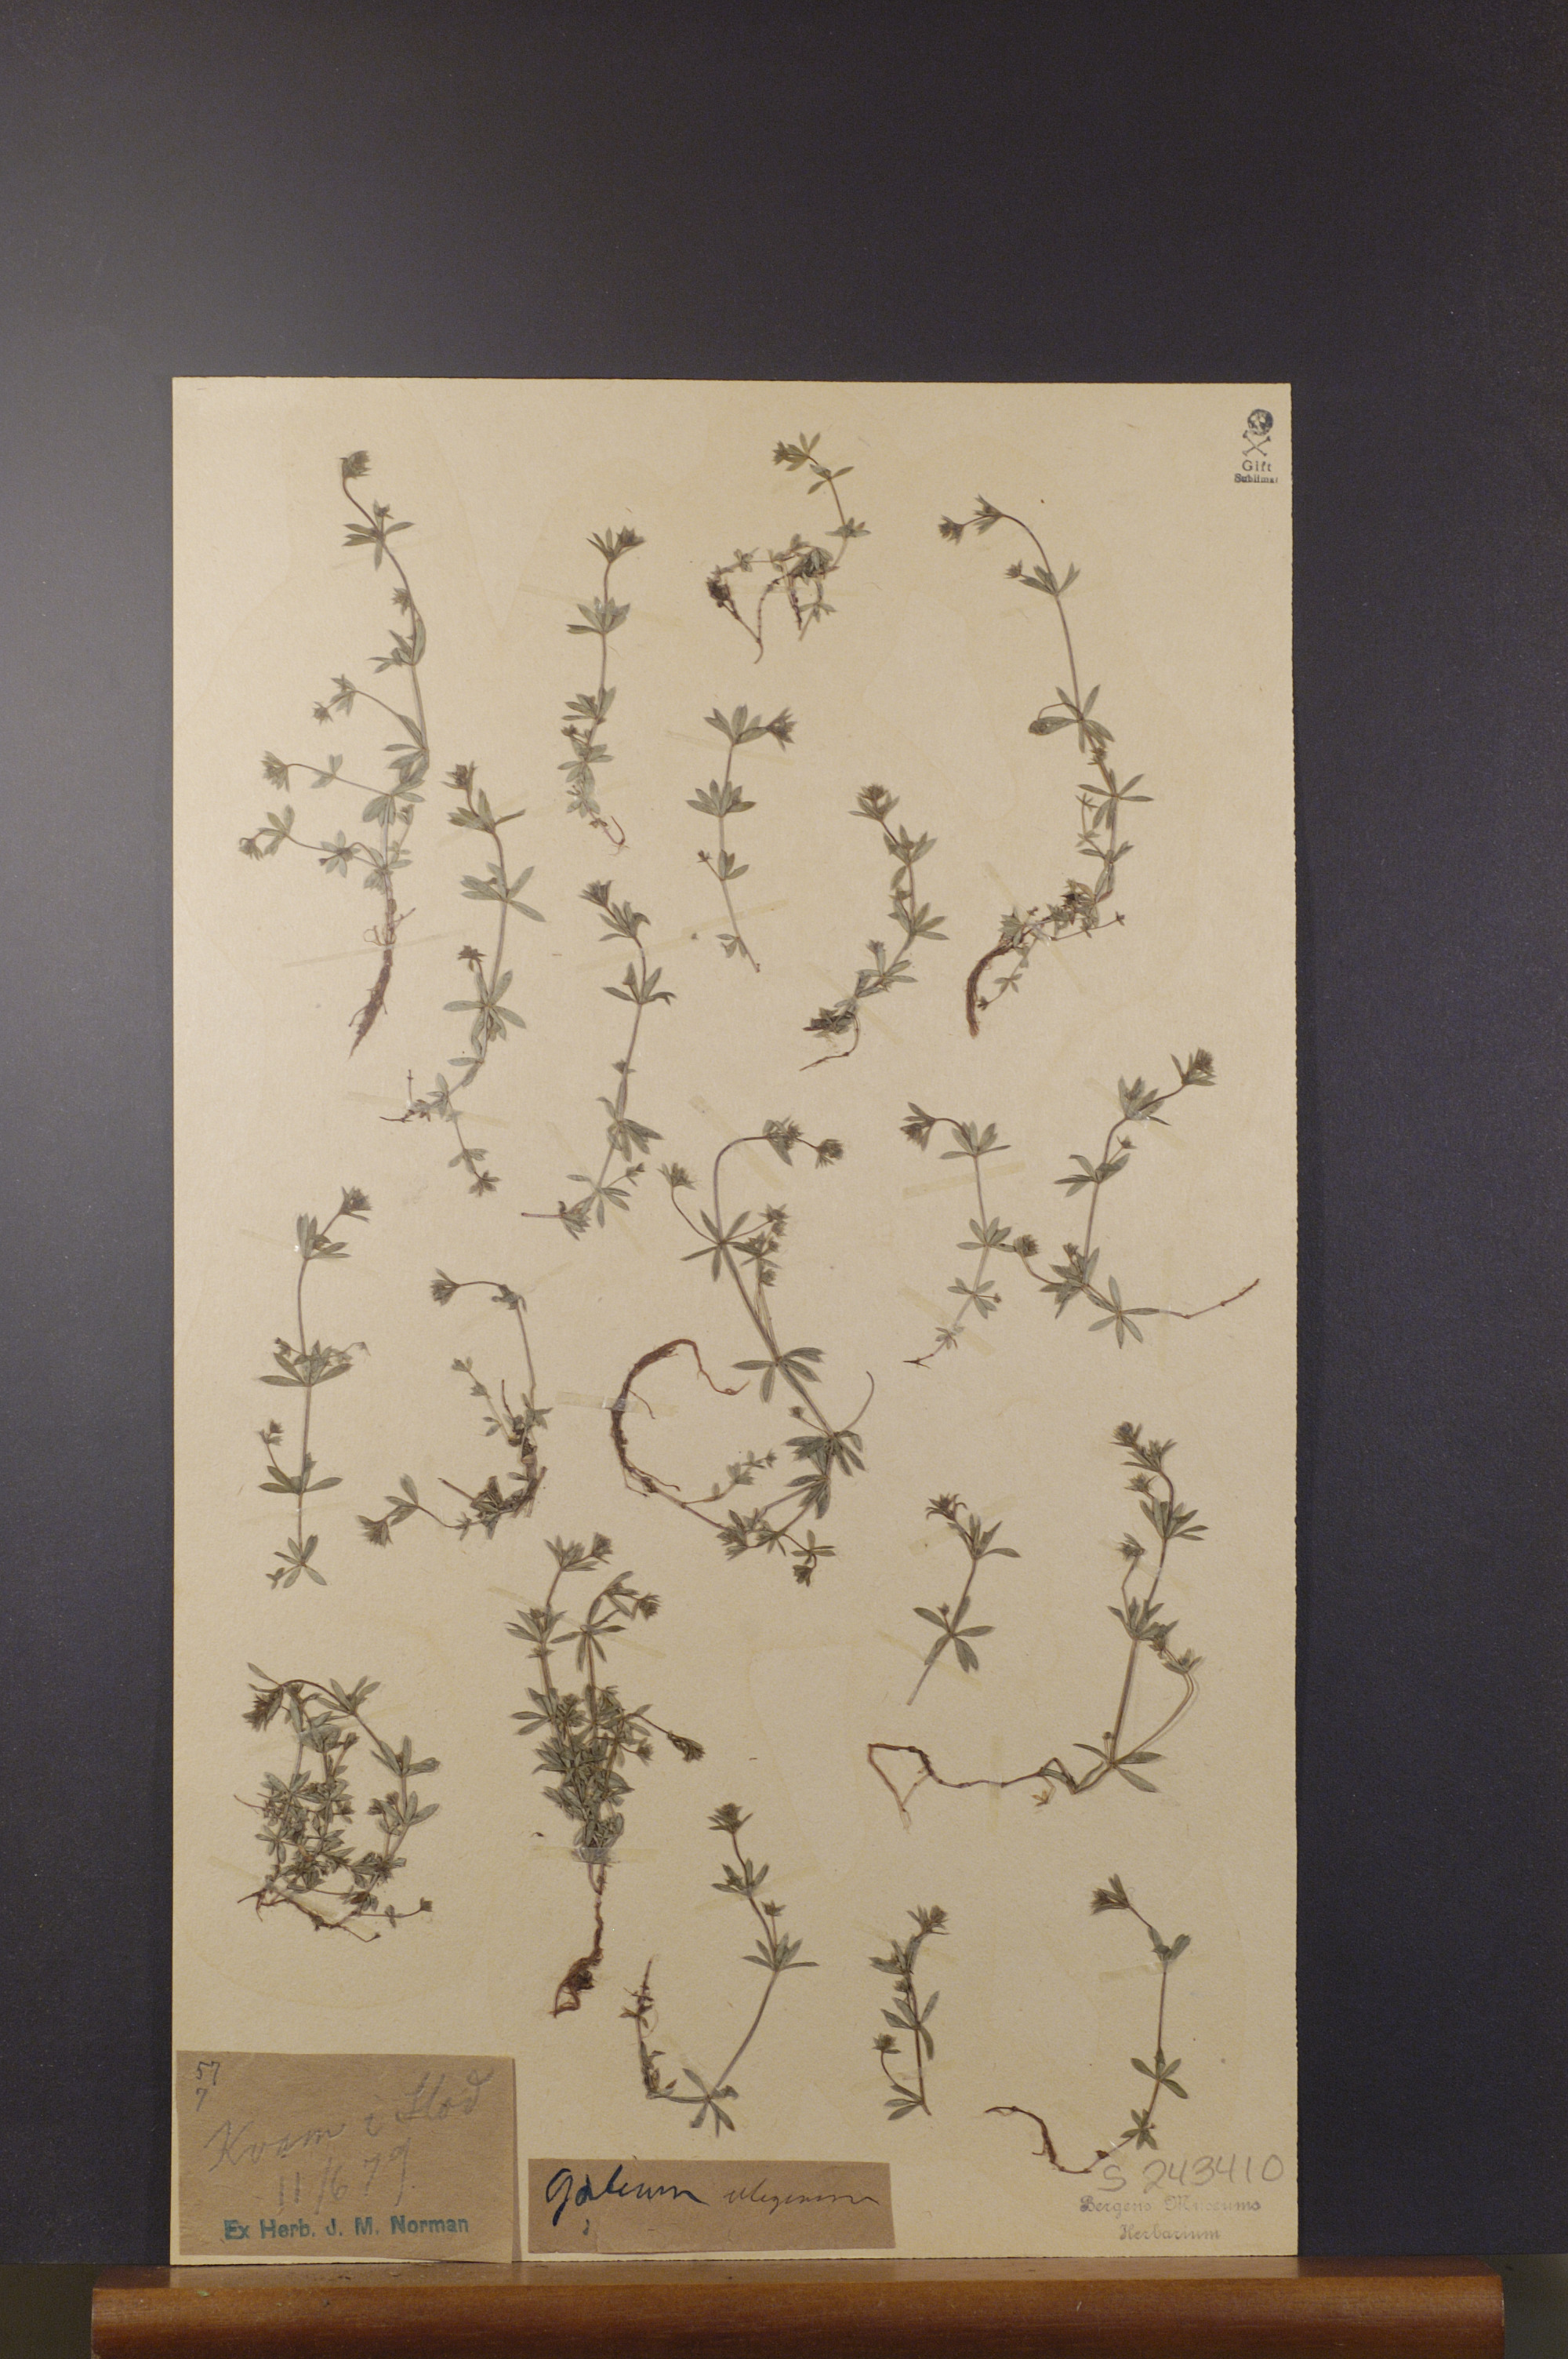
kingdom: Plantae
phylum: Tracheophyta
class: Magnoliopsida
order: Gentianales
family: Rubiaceae
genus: Galium
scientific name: Galium uliginosum
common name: Fen bedstraw
